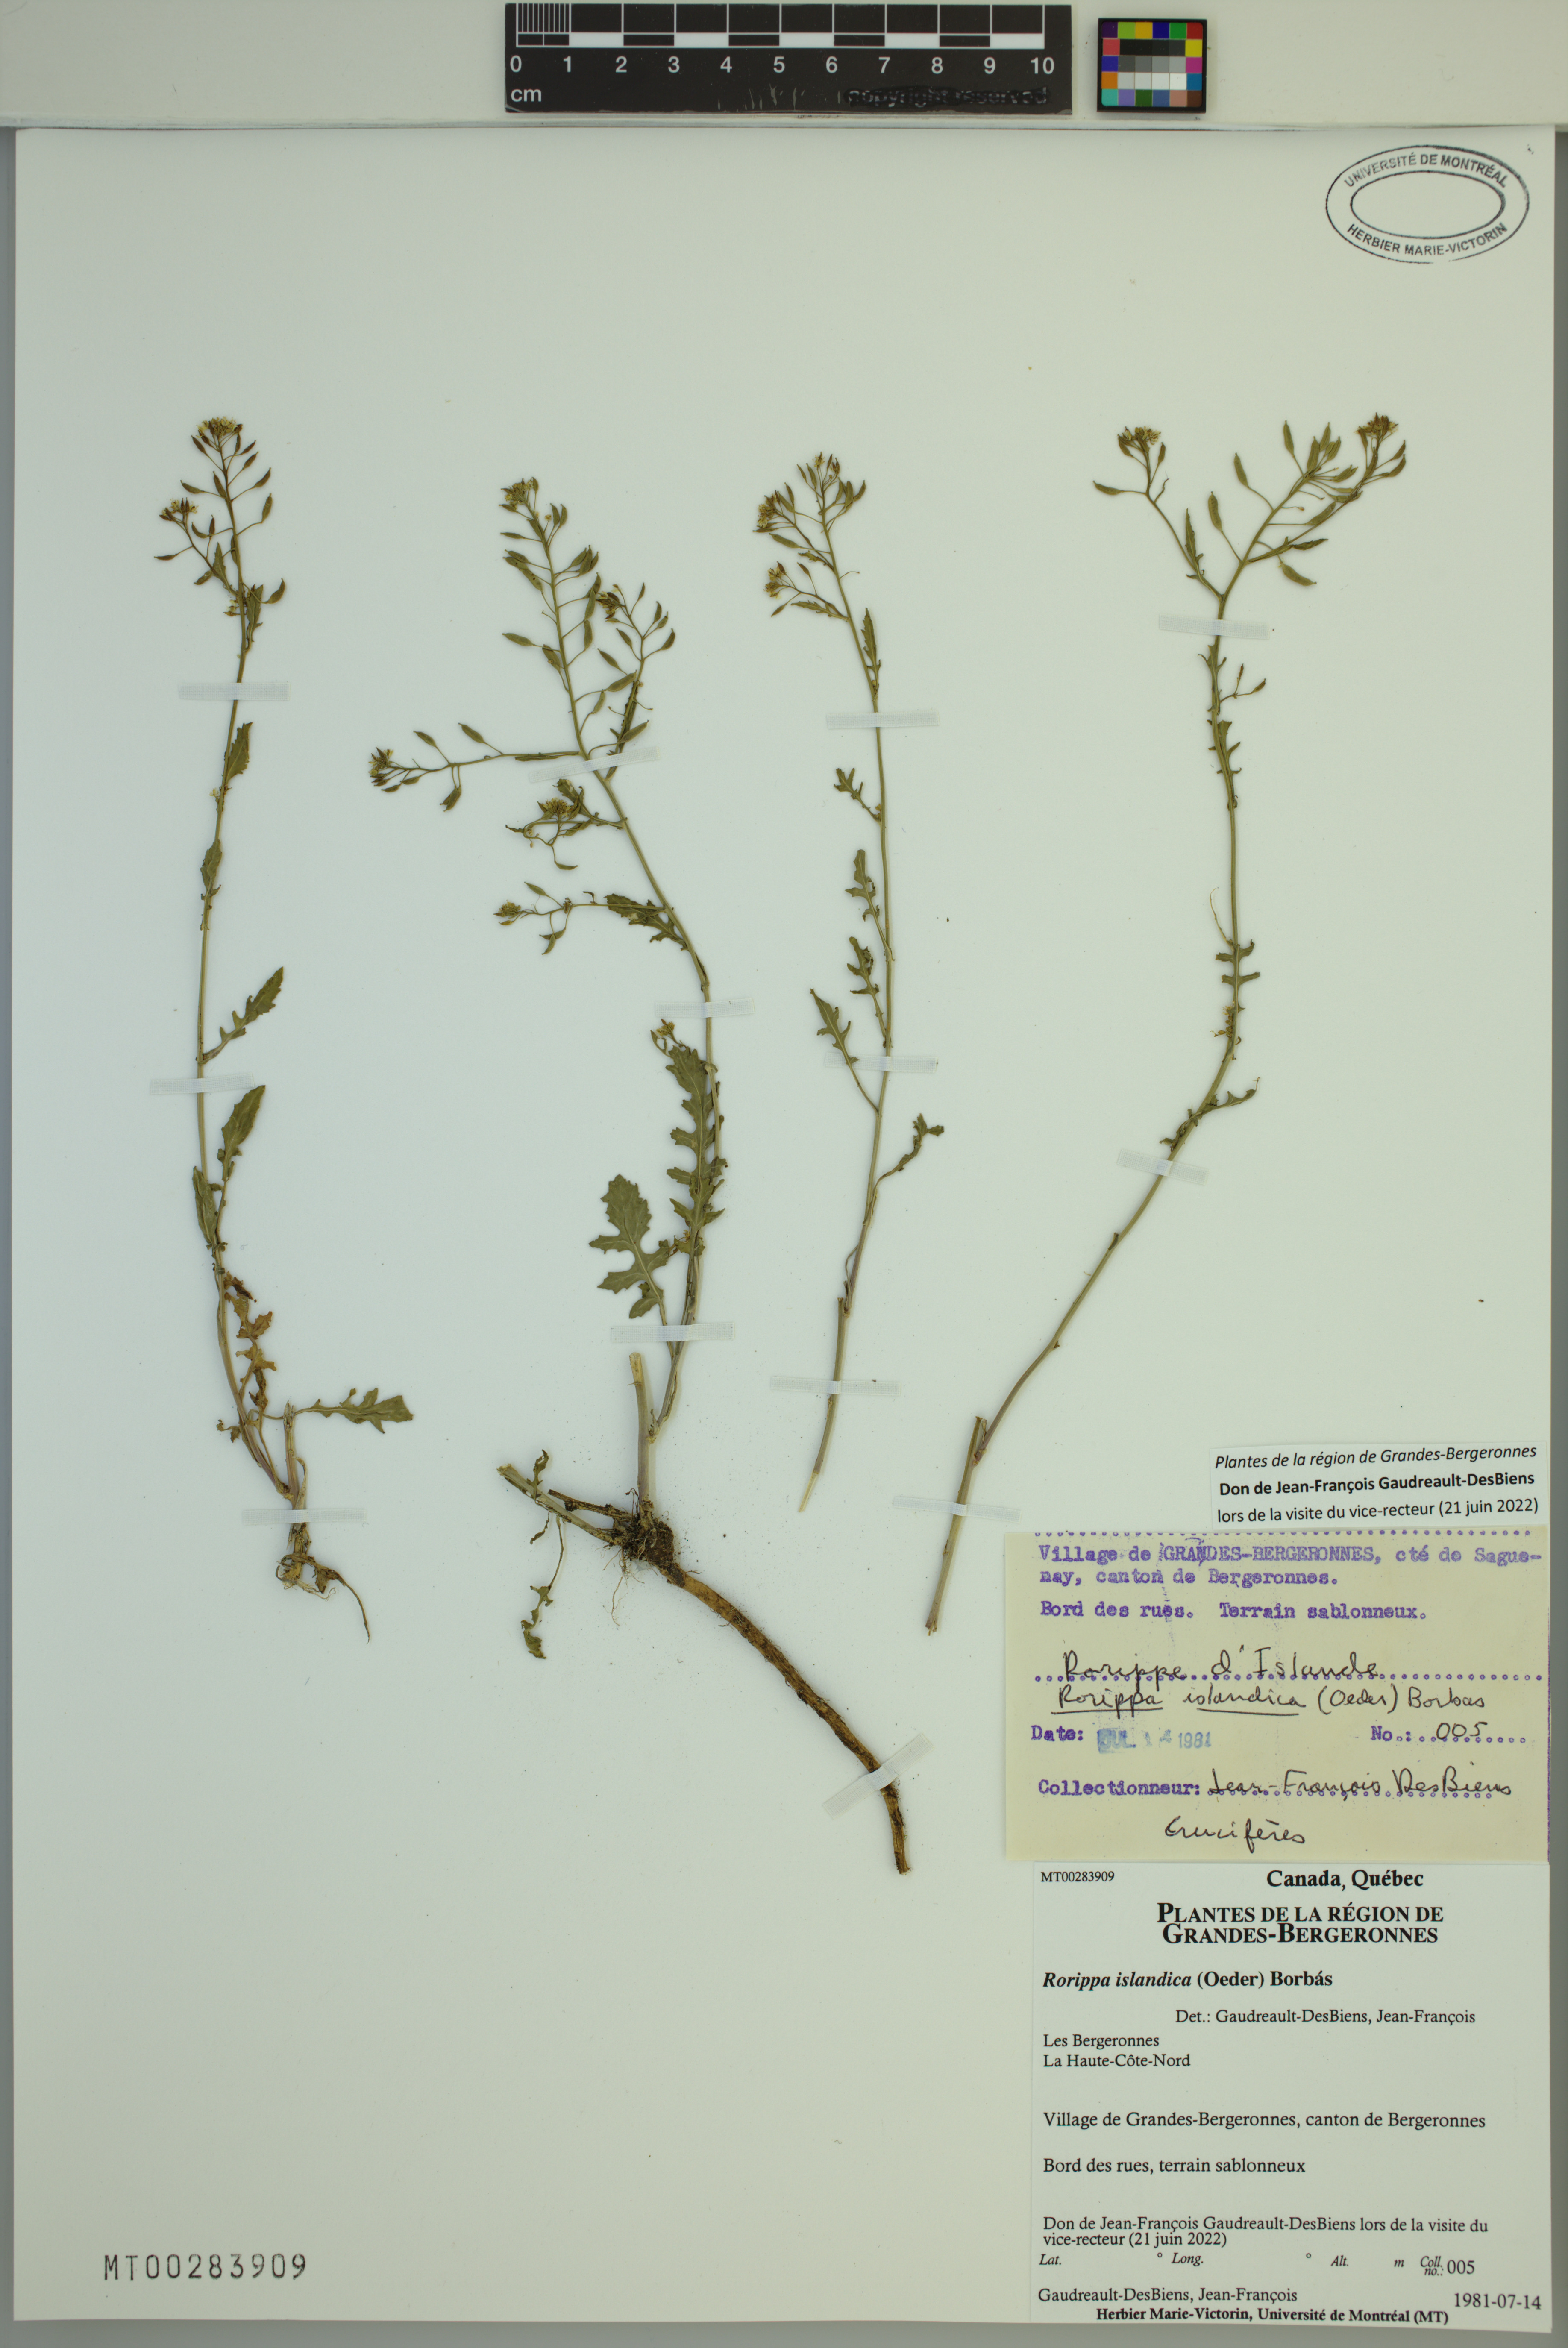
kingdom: Plantae
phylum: Tracheophyta
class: Magnoliopsida
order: Brassicales
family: Brassicaceae
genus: Rorippa
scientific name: Rorippa islandica
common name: Marsh cress
